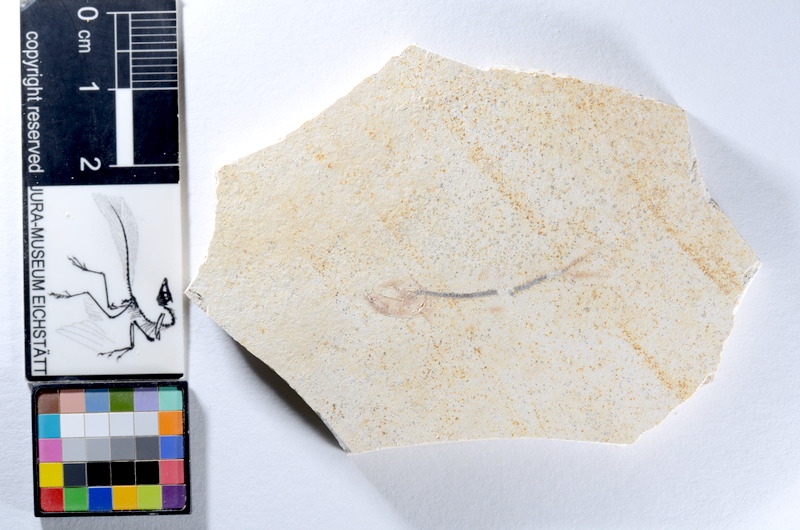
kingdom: Animalia
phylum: Chordata
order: Salmoniformes
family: Orthogonikleithridae
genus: Orthogonikleithrus
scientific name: Orthogonikleithrus hoelli
